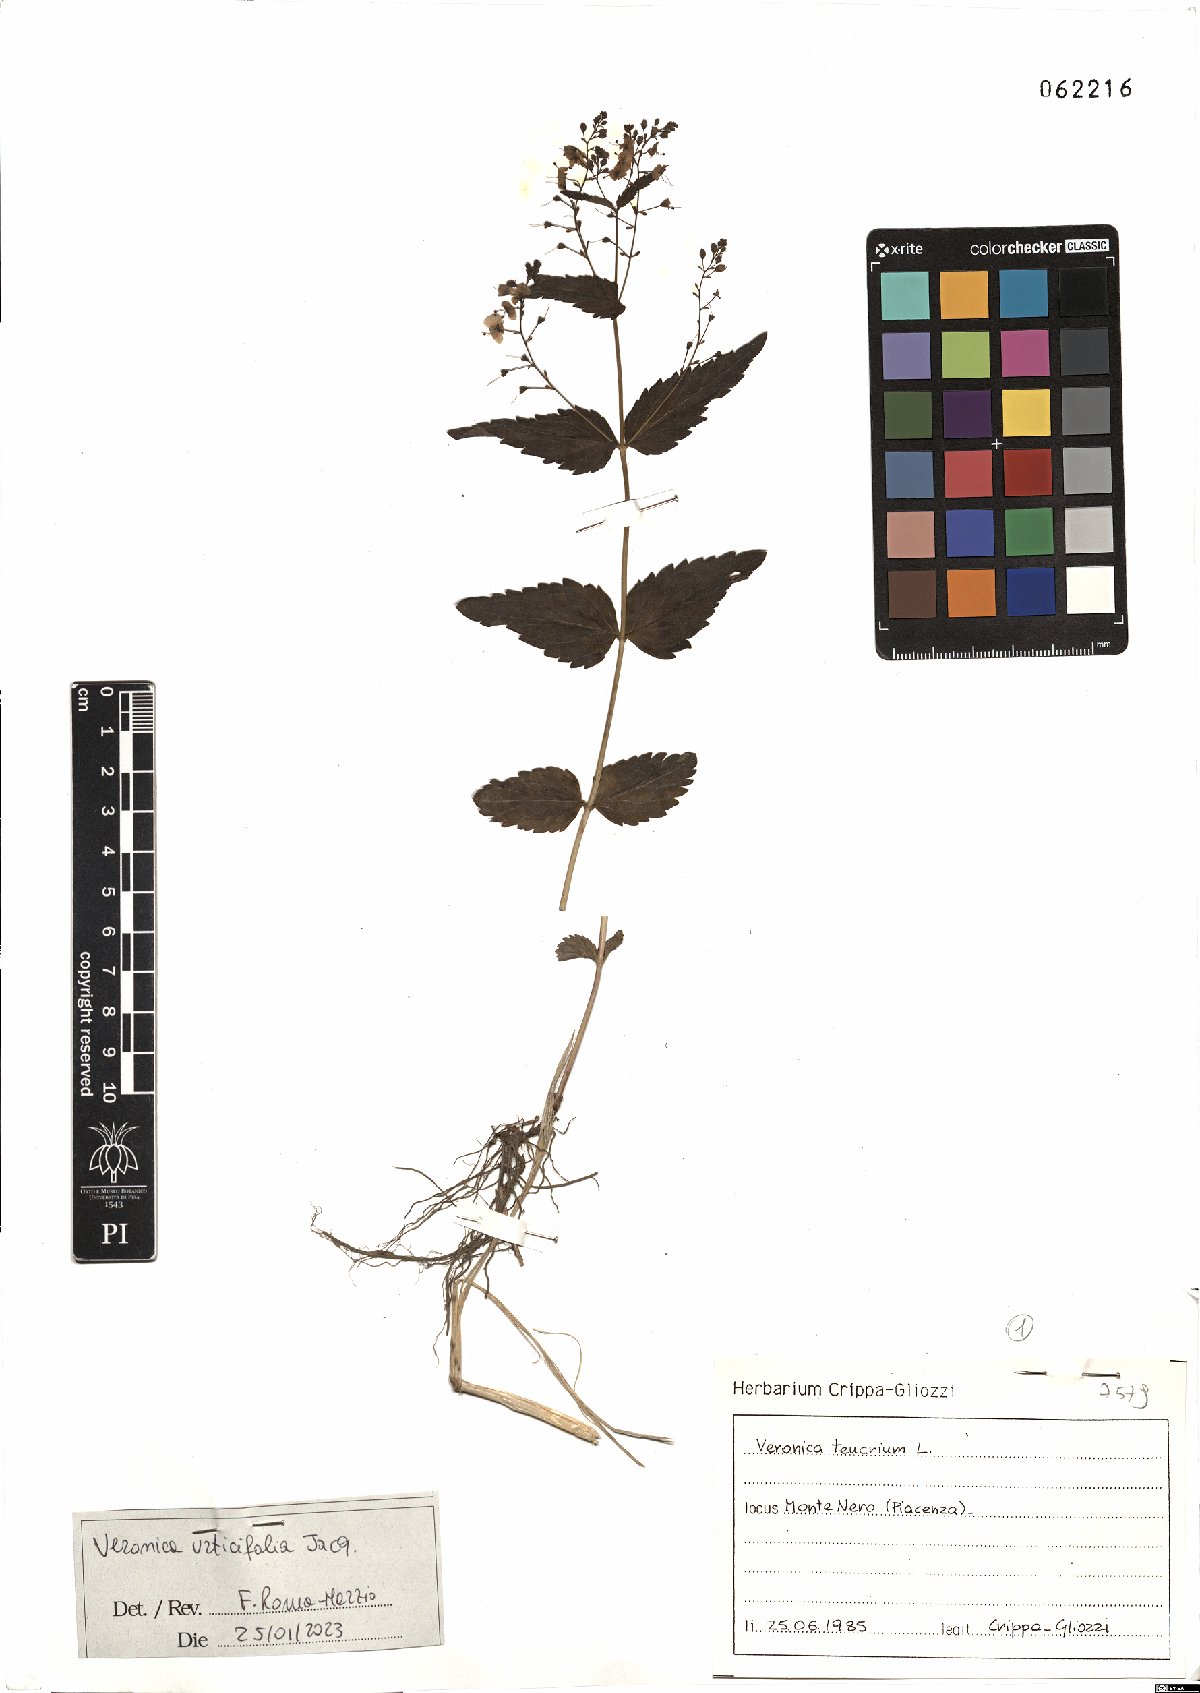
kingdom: Plantae
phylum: Tracheophyta
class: Magnoliopsida
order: Lamiales
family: Plantaginaceae
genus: Veronica
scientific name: Veronica urticifolia
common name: Nettle-leaf speedwell
